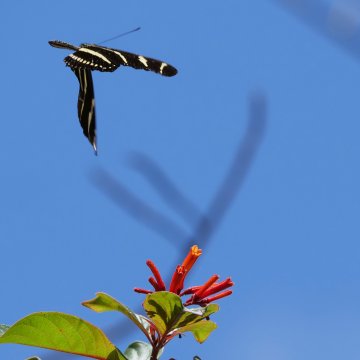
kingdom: Animalia
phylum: Arthropoda
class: Insecta
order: Lepidoptera
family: Nymphalidae
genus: Heliconius
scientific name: Heliconius charithonia
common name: Zebra Longwing
